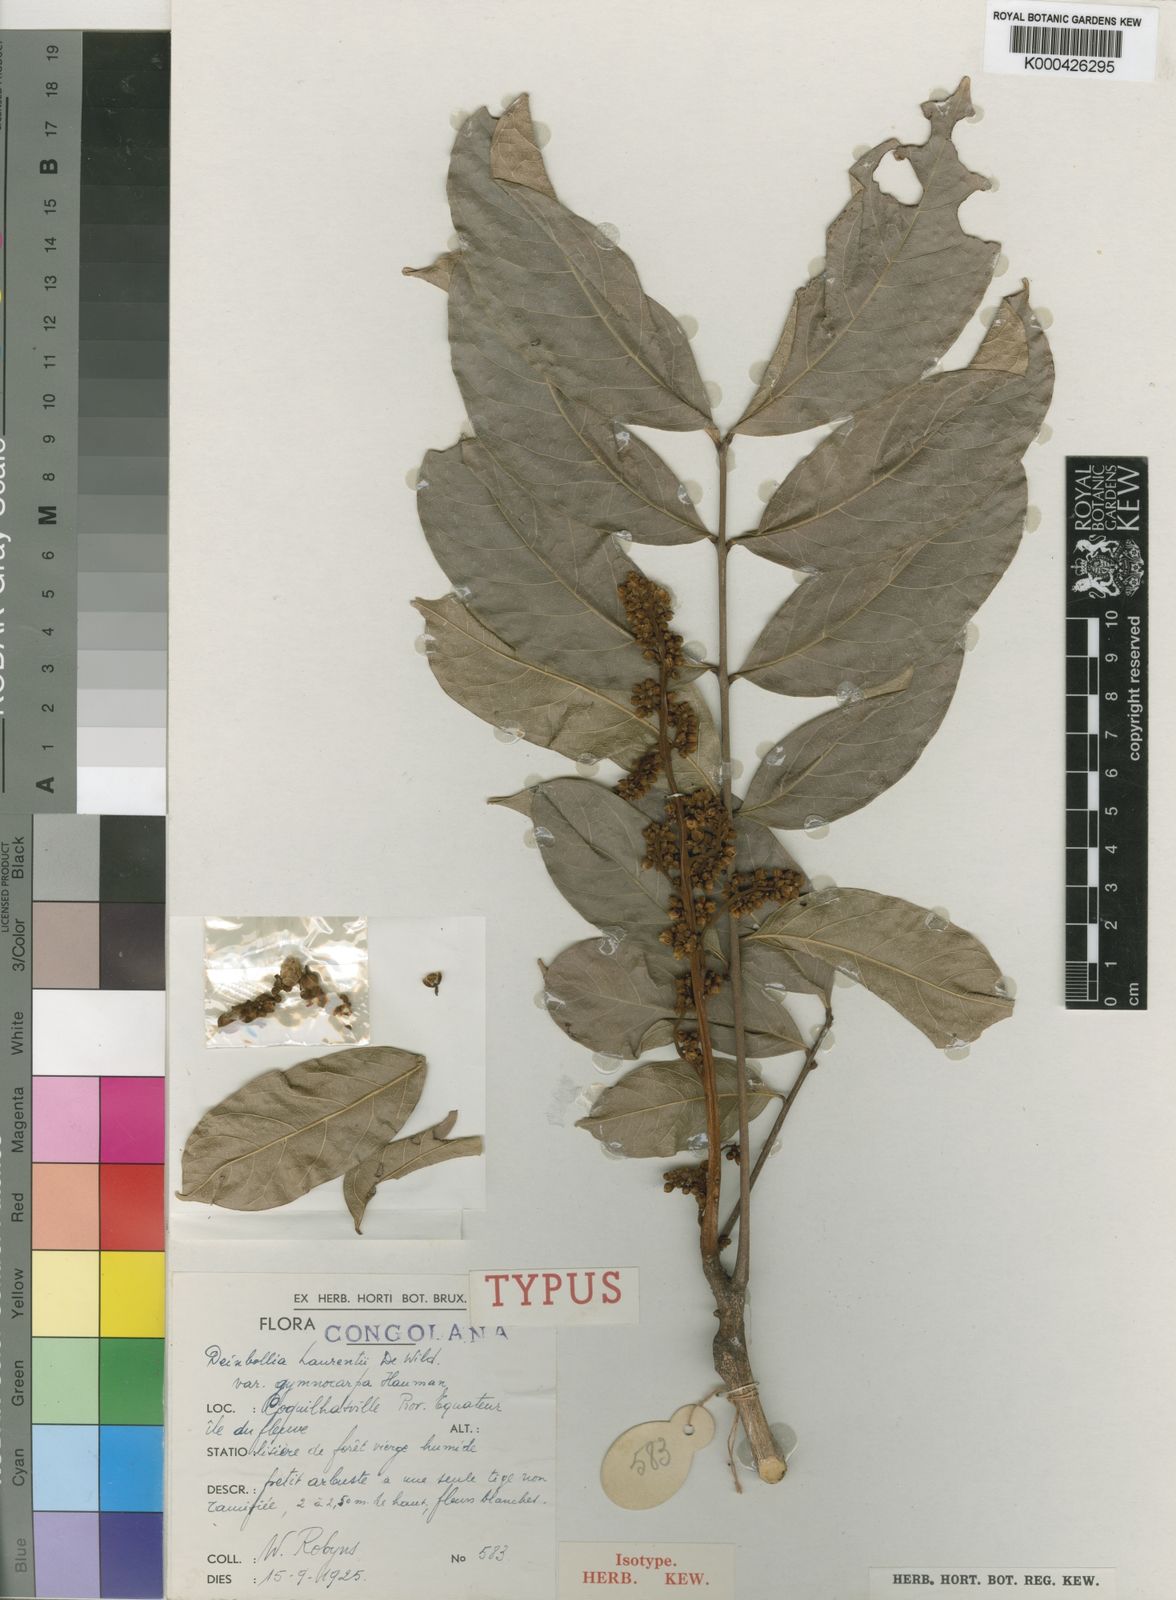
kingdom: Plantae
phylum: Tracheophyta
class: Magnoliopsida
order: Sapindales
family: Sapindaceae
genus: Deinbollia
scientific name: Deinbollia laurentii
